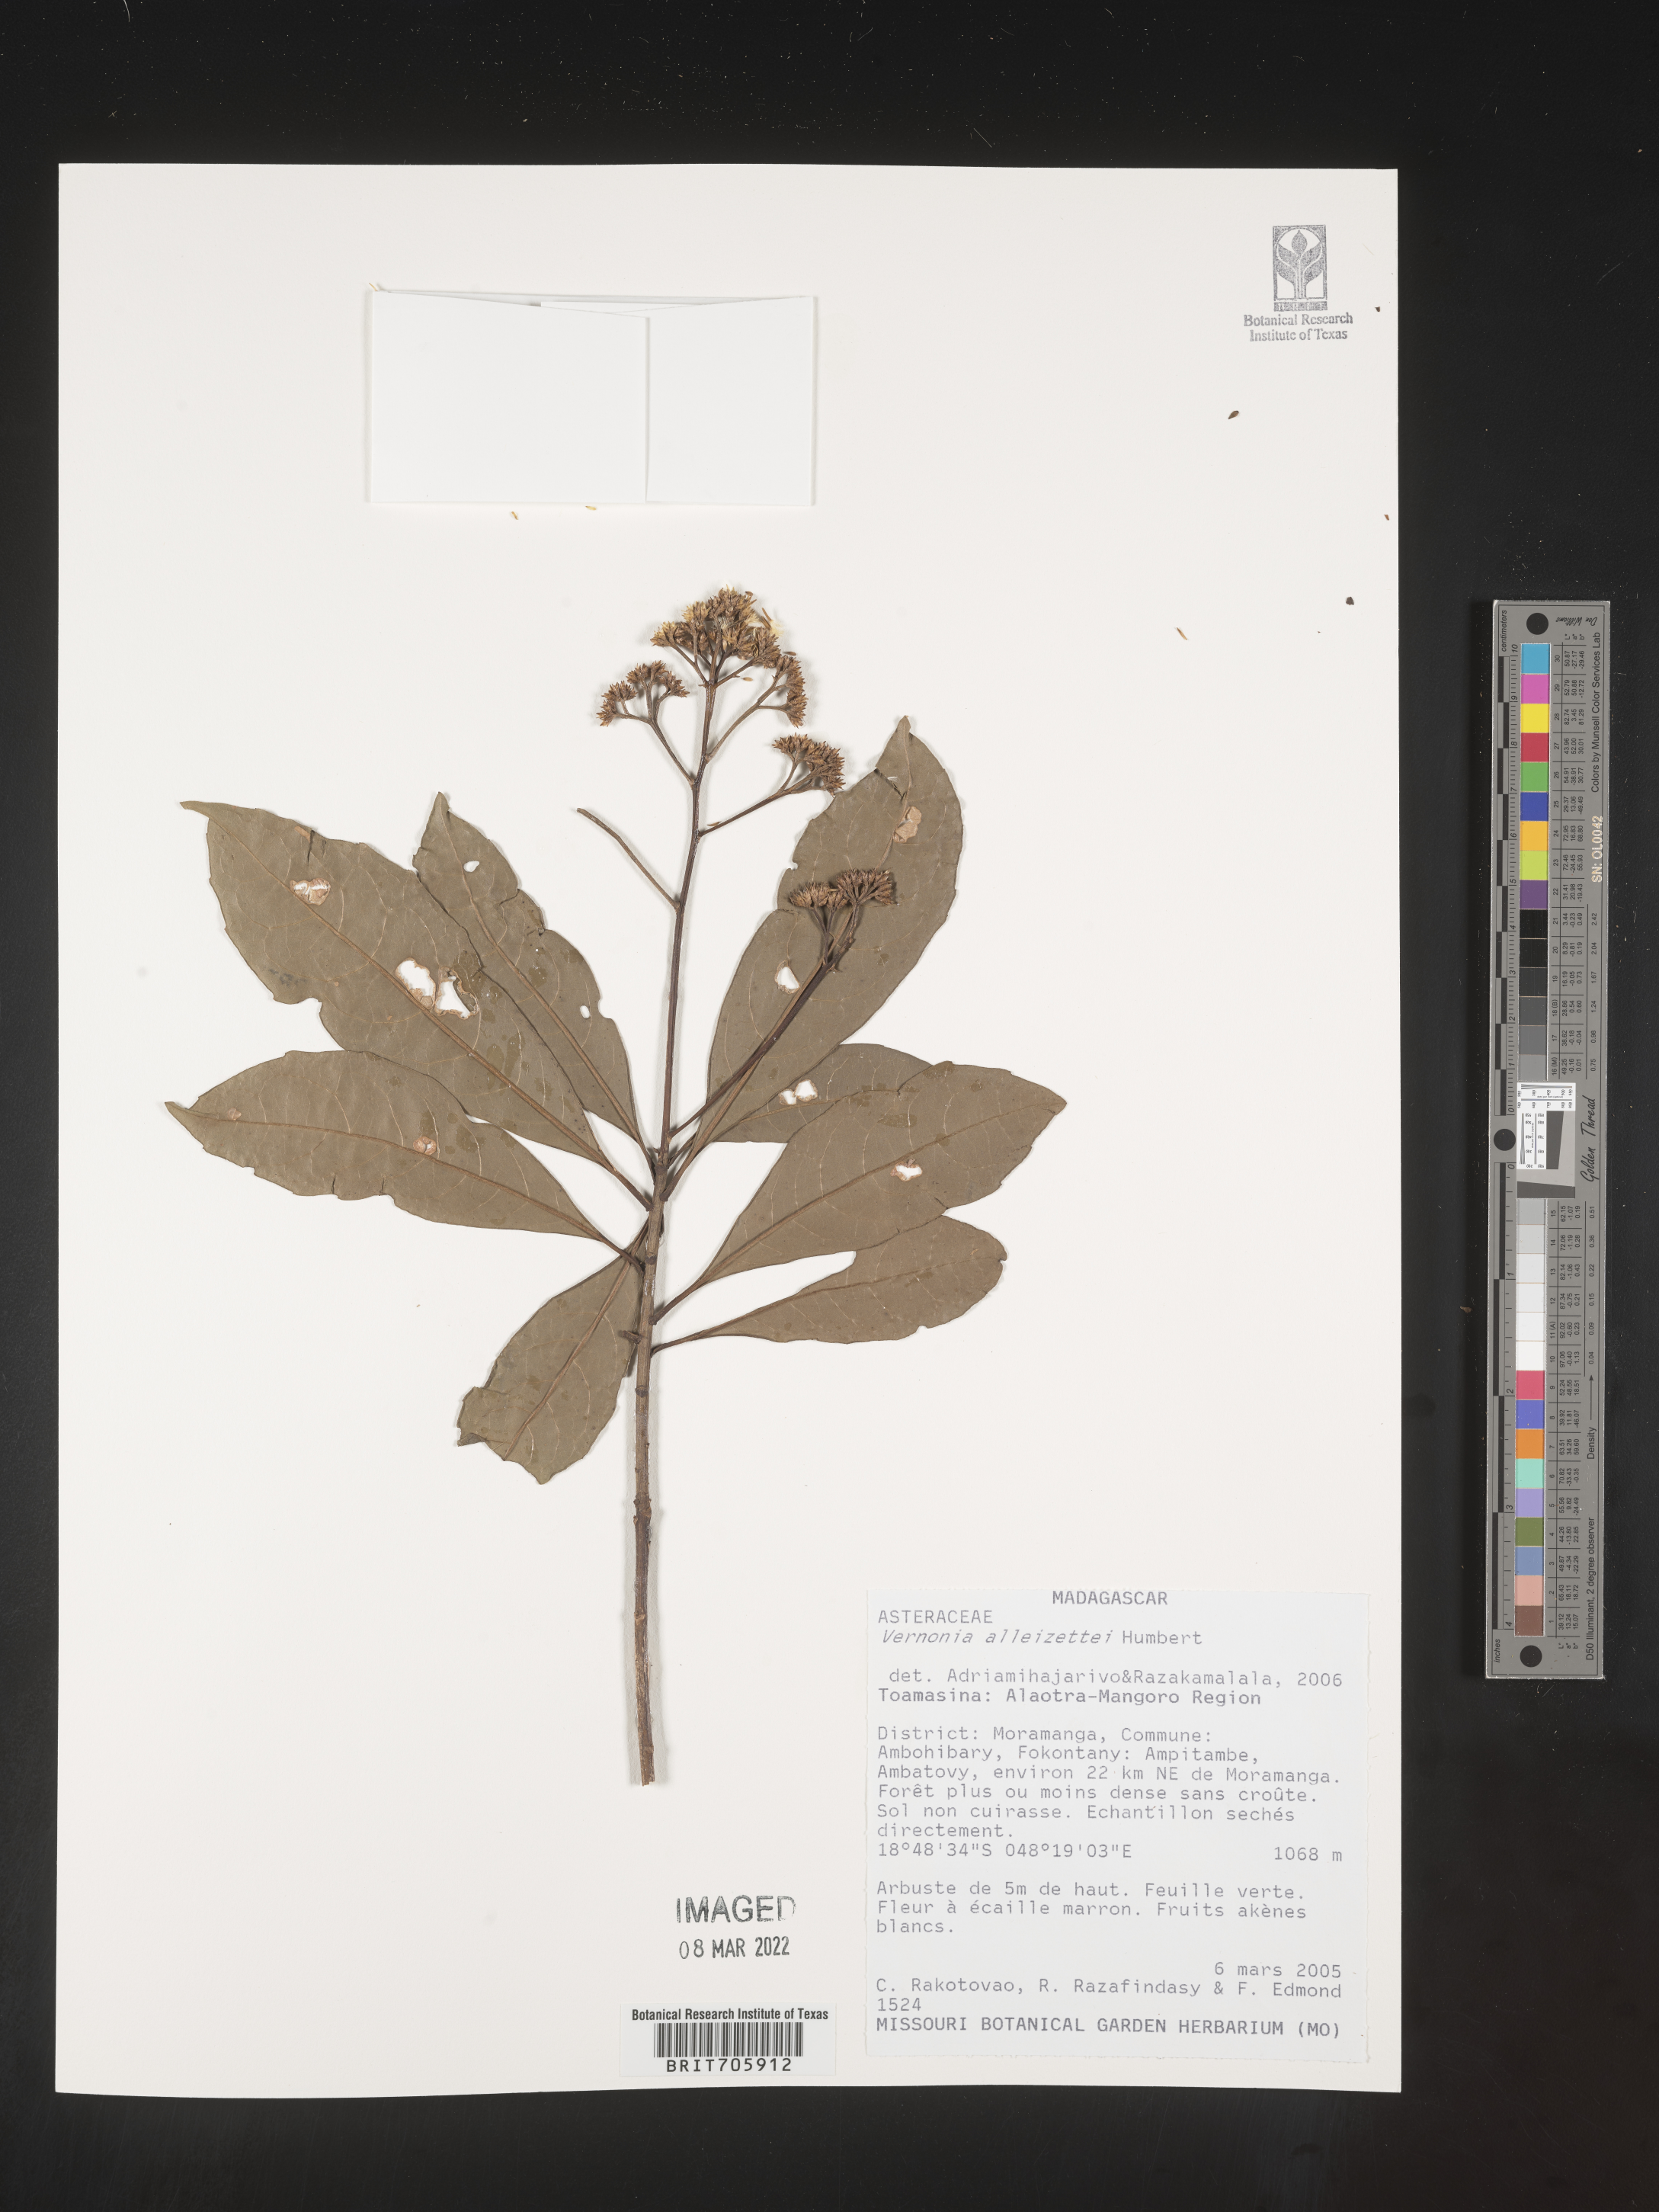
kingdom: Plantae
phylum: Tracheophyta
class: Magnoliopsida
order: Asterales
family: Asteraceae
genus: Vernonia
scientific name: Vernonia
